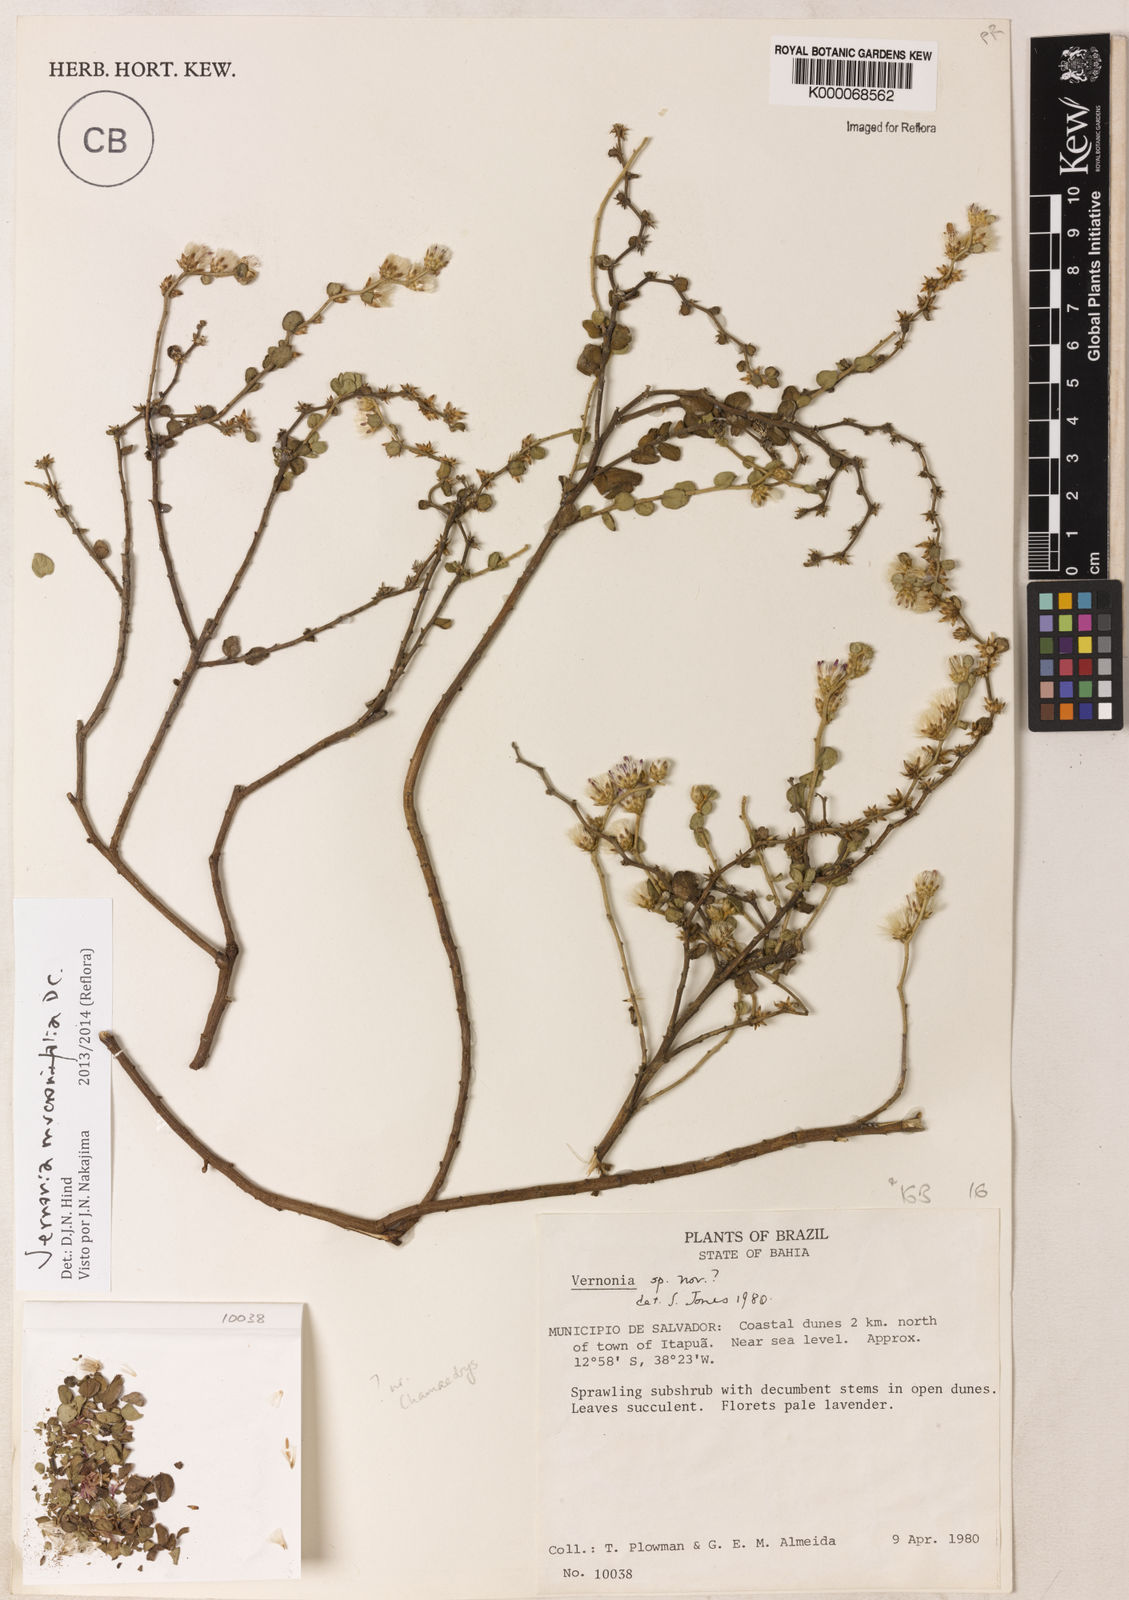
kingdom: Plantae
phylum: Tracheophyta
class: Magnoliopsida
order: Asterales
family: Asteraceae
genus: Lepidaploa
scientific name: Lepidaploa mucronifolia
